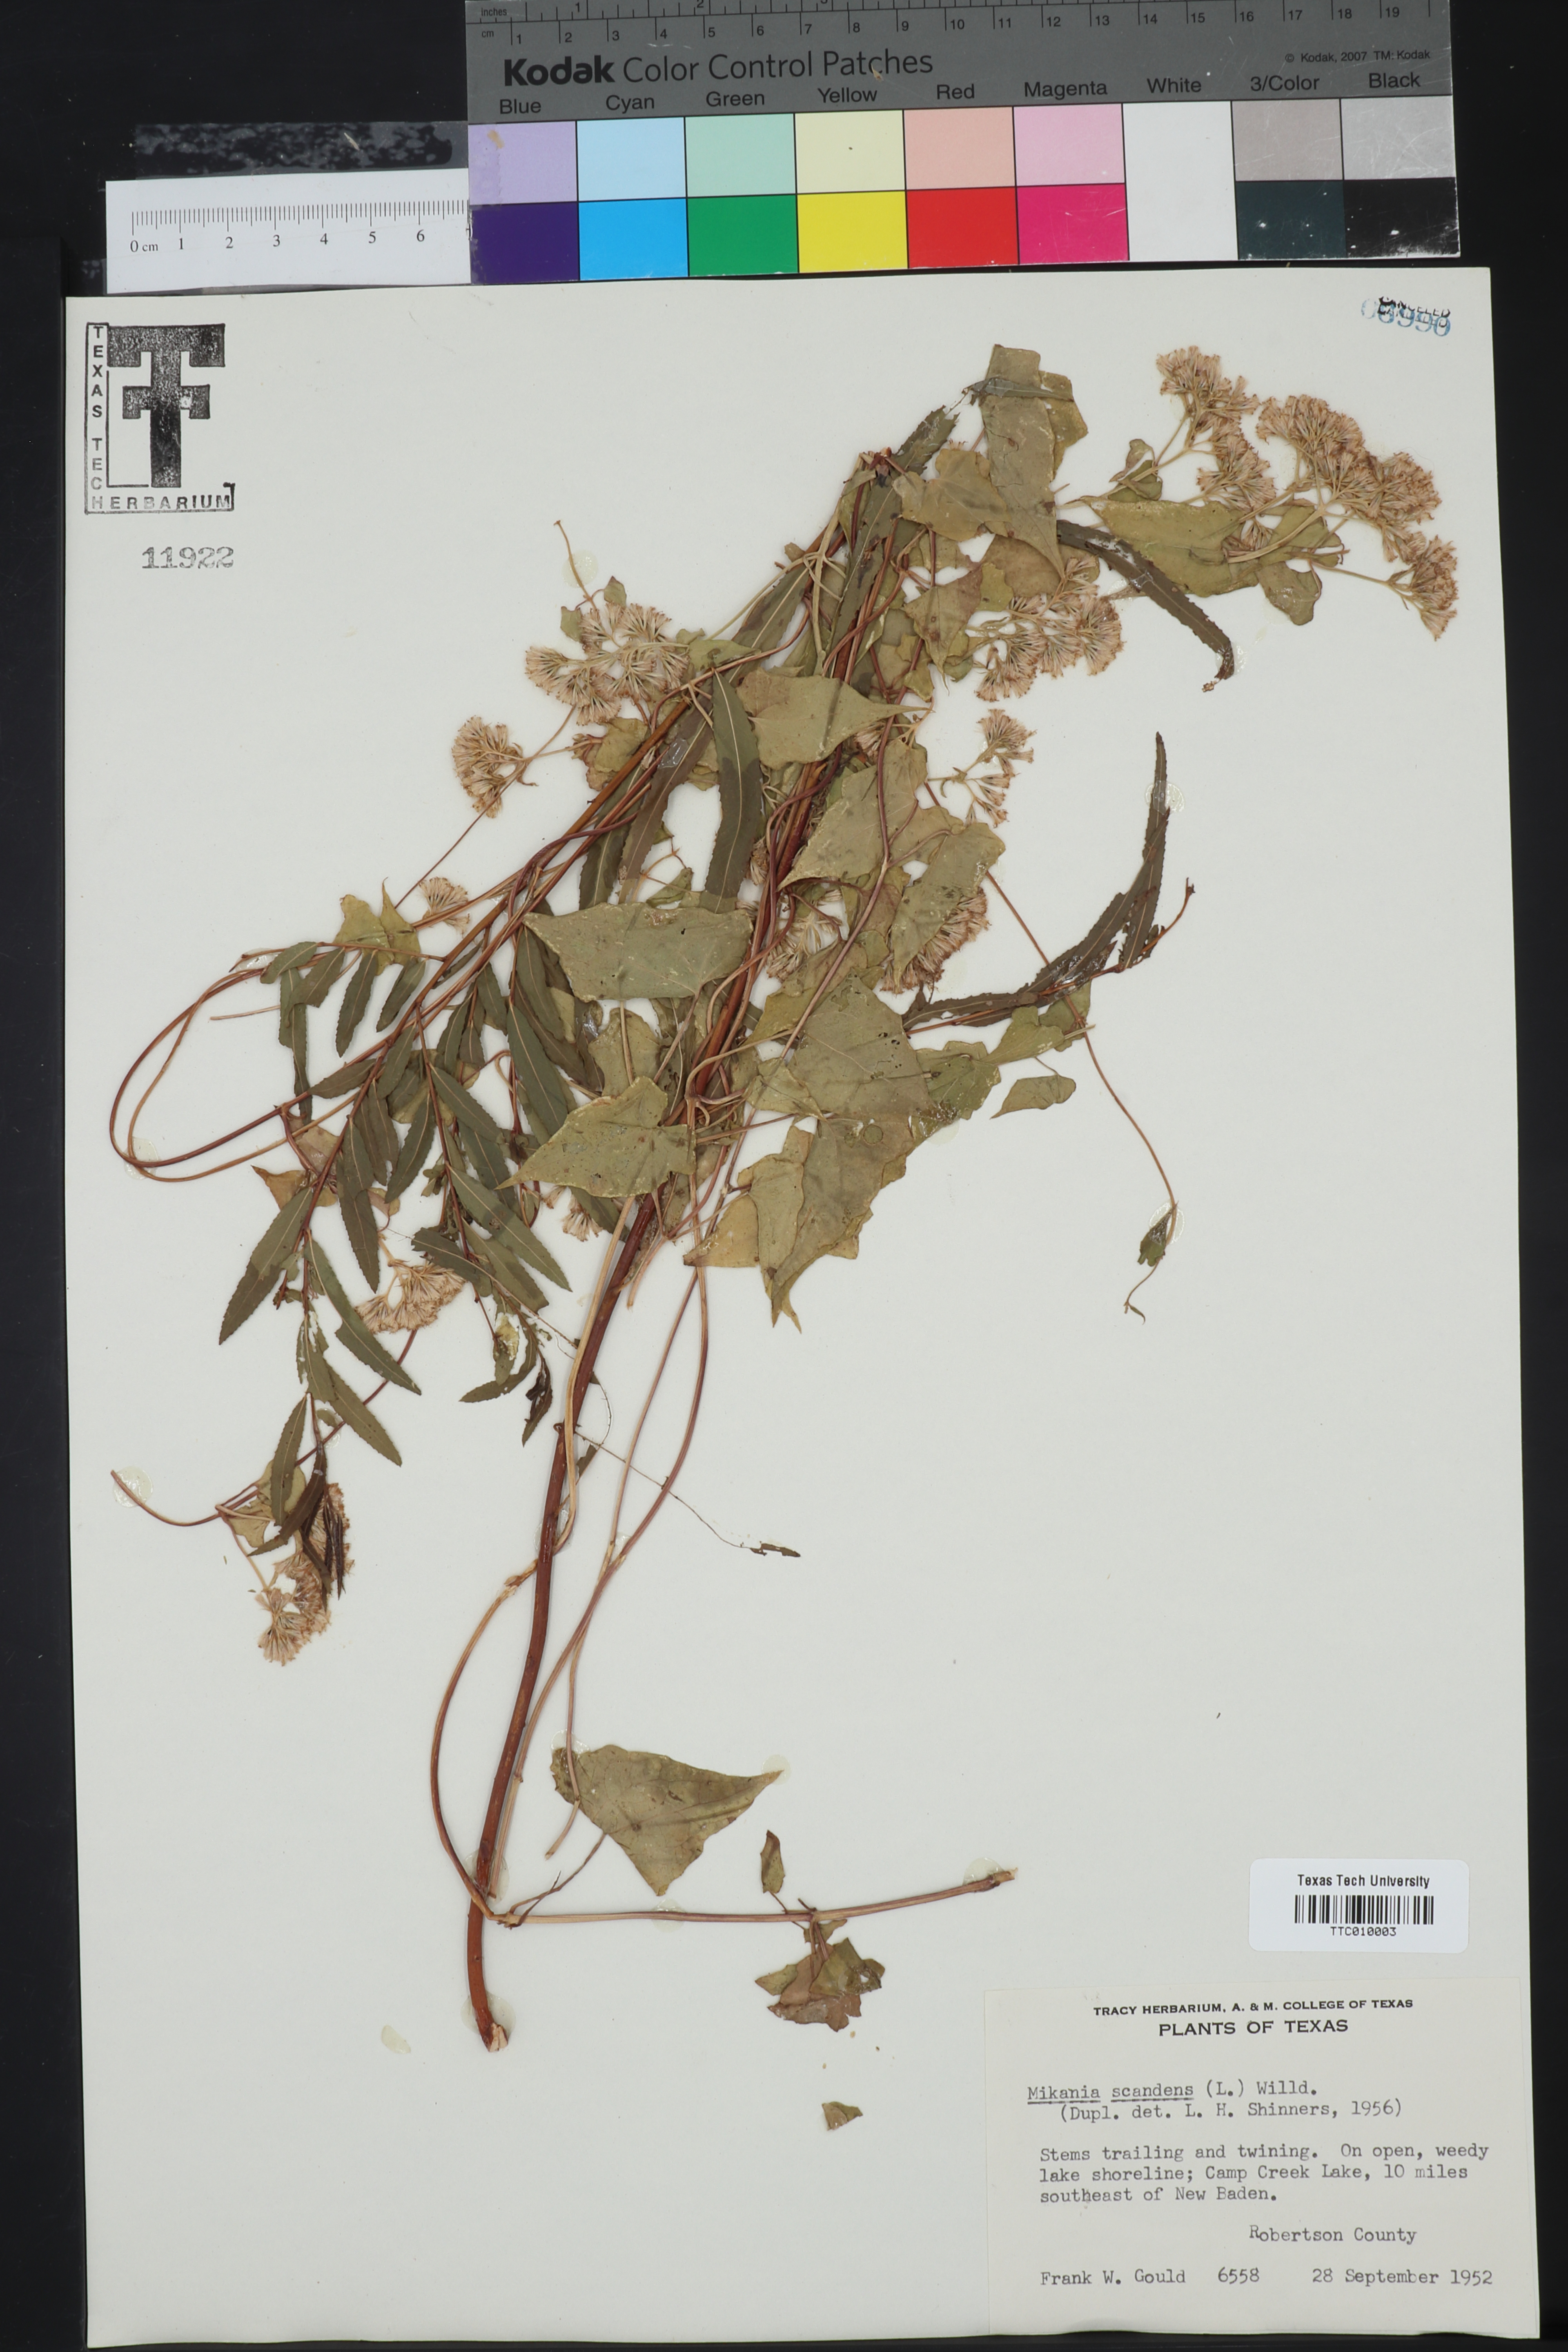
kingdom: Plantae
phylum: Tracheophyta
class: Magnoliopsida
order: Asterales
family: Asteraceae
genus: Mikania
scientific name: Mikania scandens
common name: Climbing hempvine
